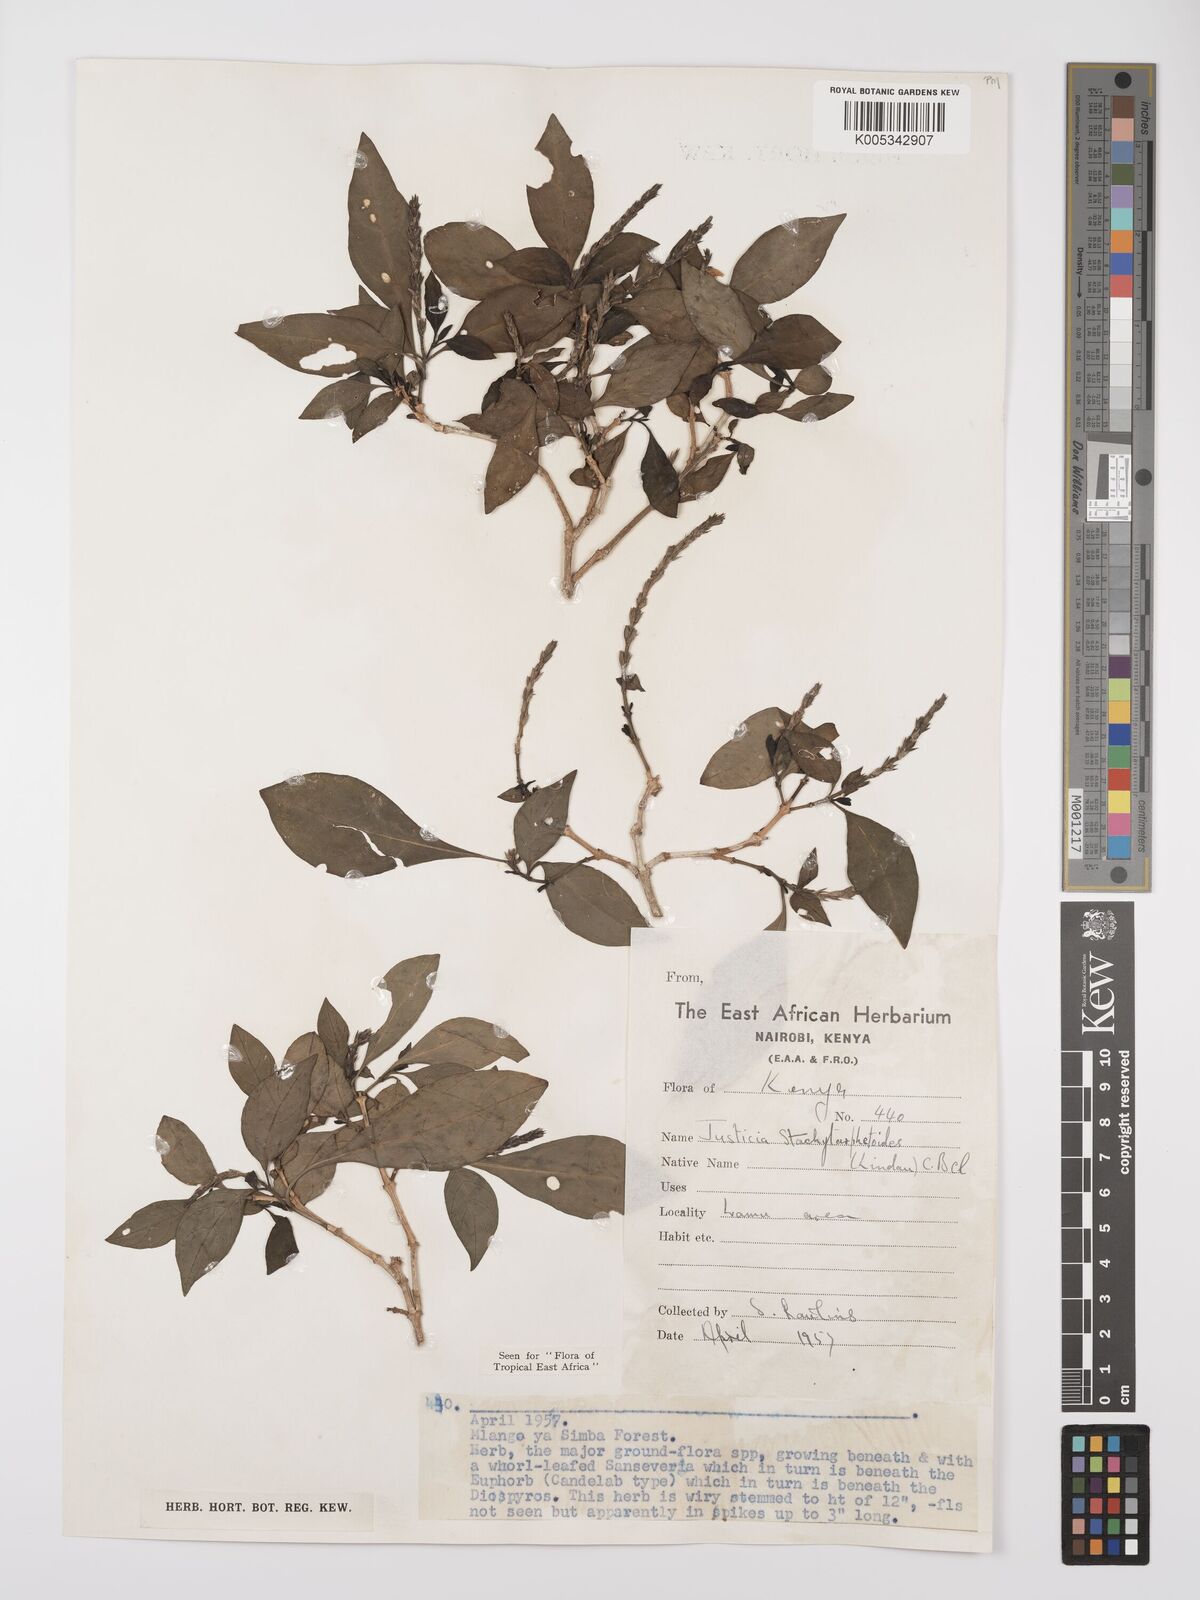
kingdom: Plantae
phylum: Tracheophyta
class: Magnoliopsida
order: Lamiales
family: Acanthaceae
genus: Justicia
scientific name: Justicia stachytarphetoides
